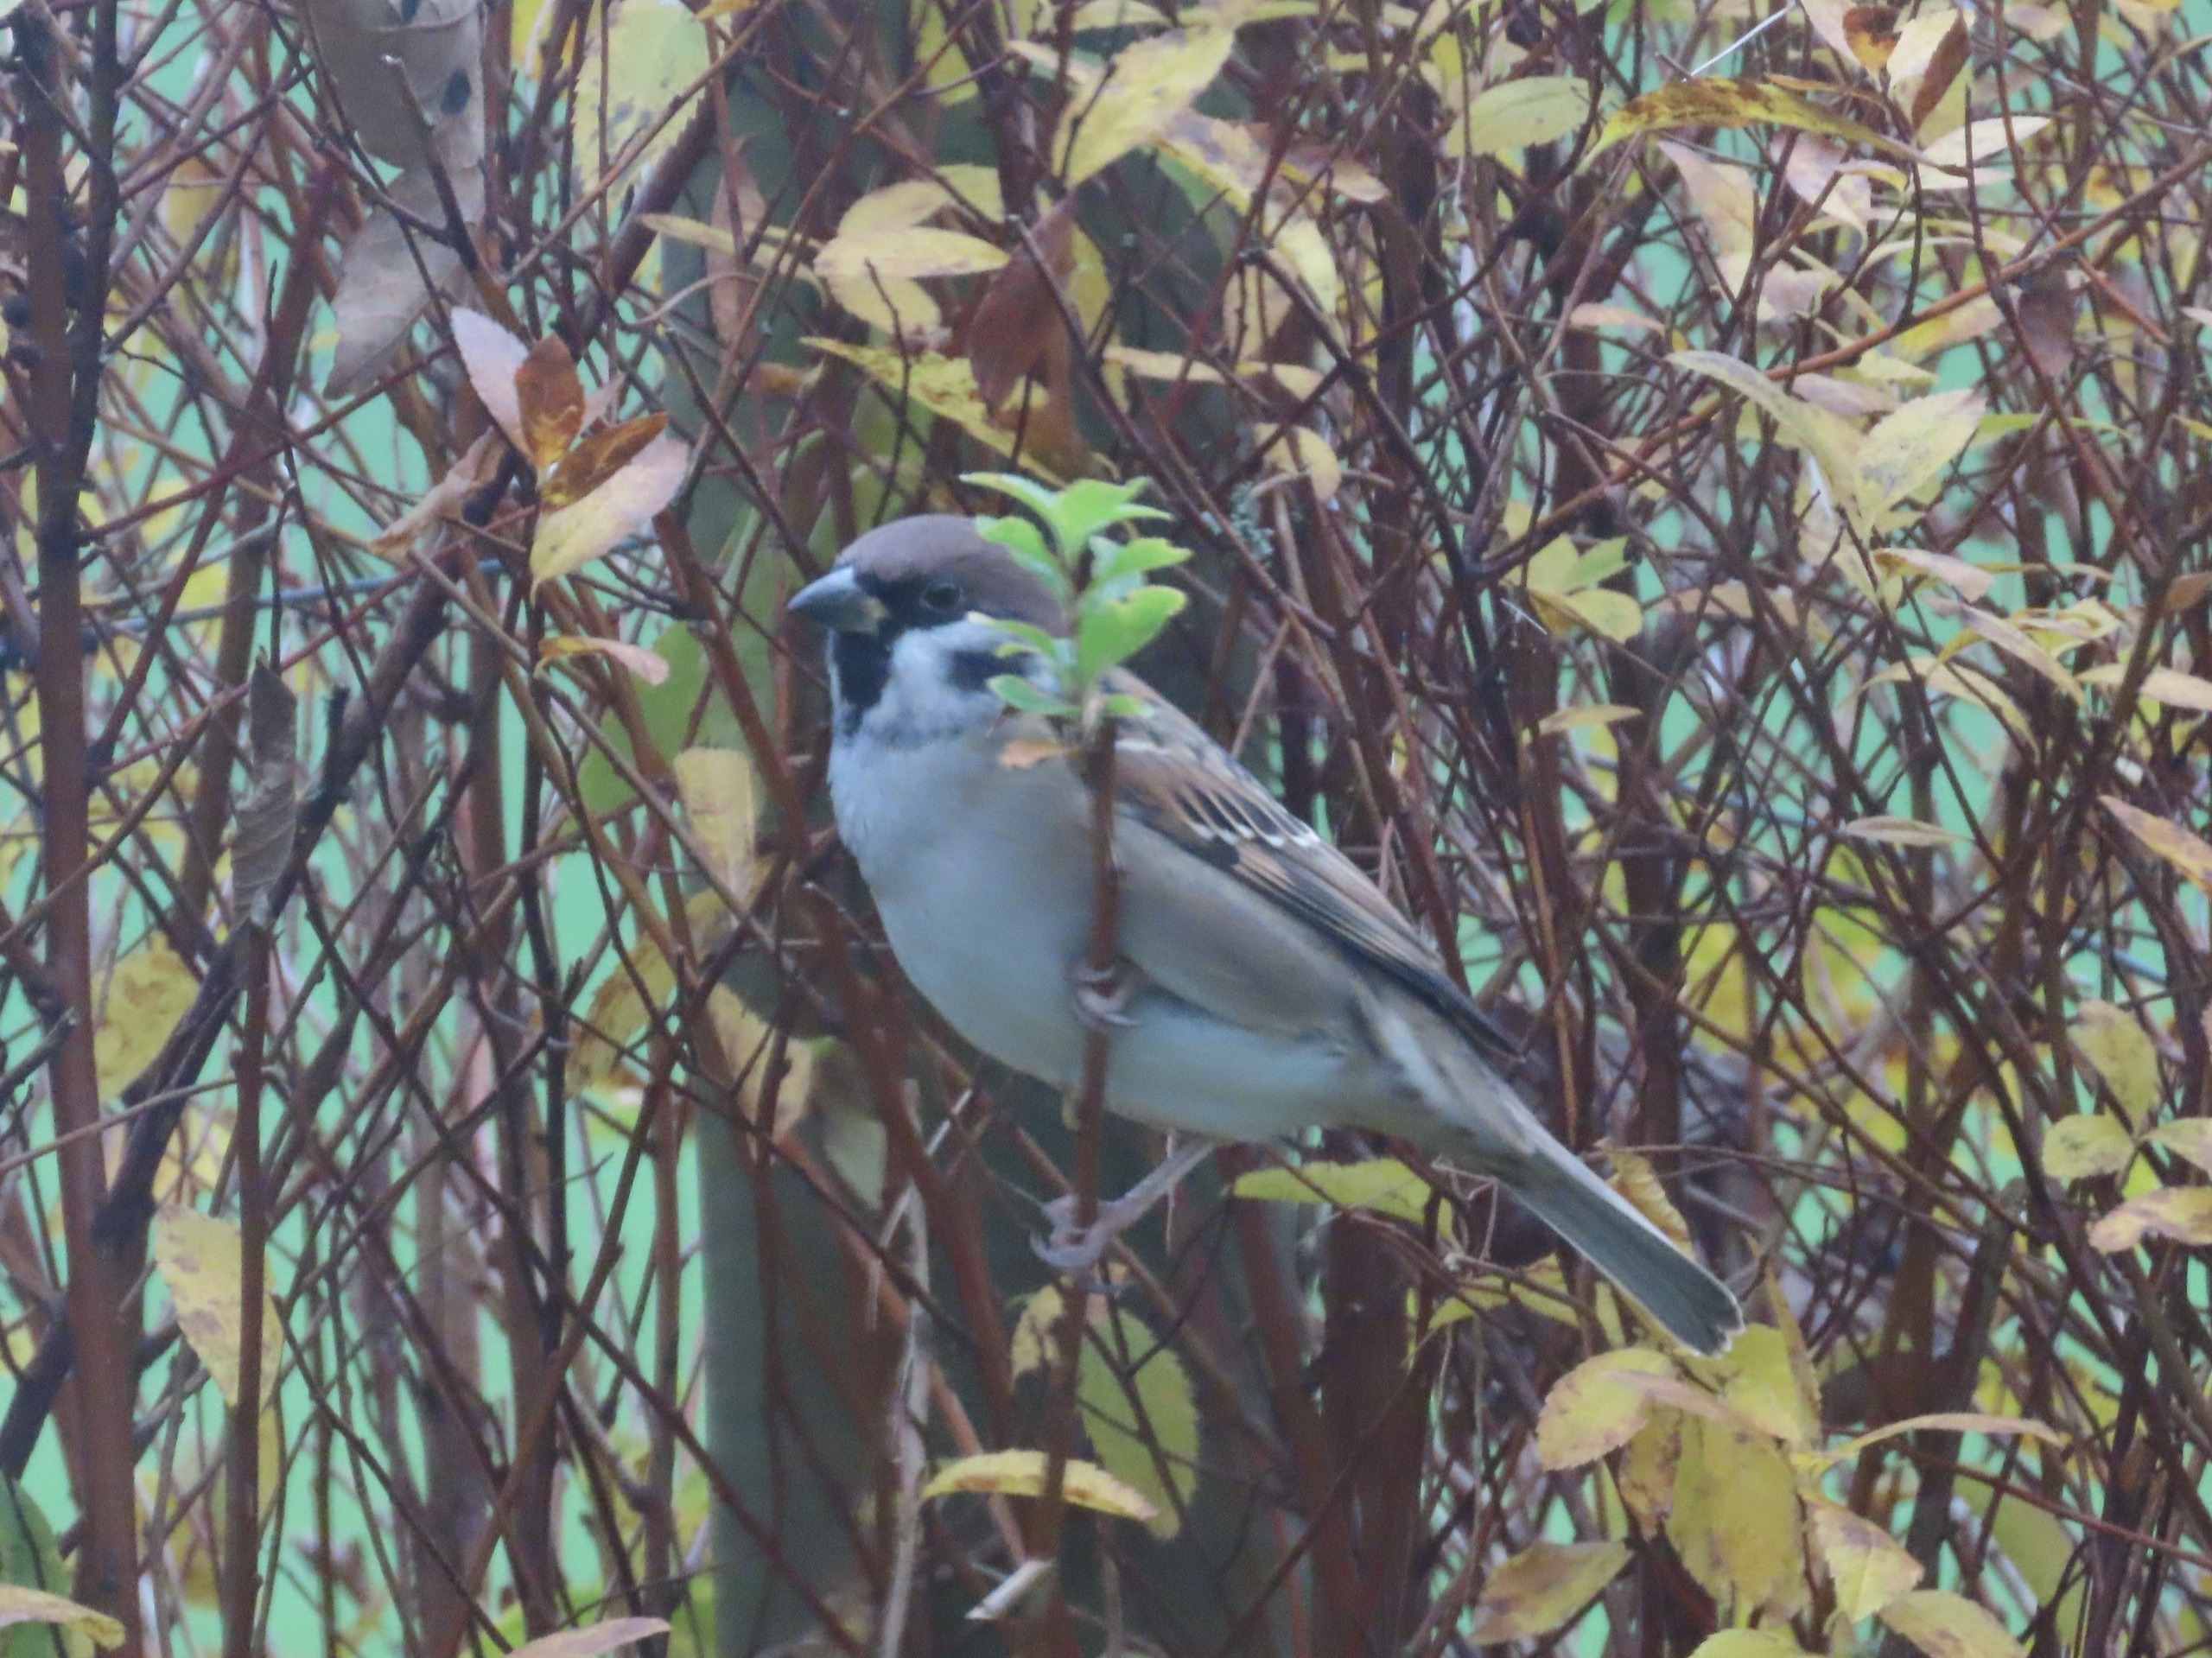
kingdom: Animalia
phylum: Chordata
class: Aves
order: Passeriformes
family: Passeridae
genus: Passer
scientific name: Passer montanus
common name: Skovspurv
